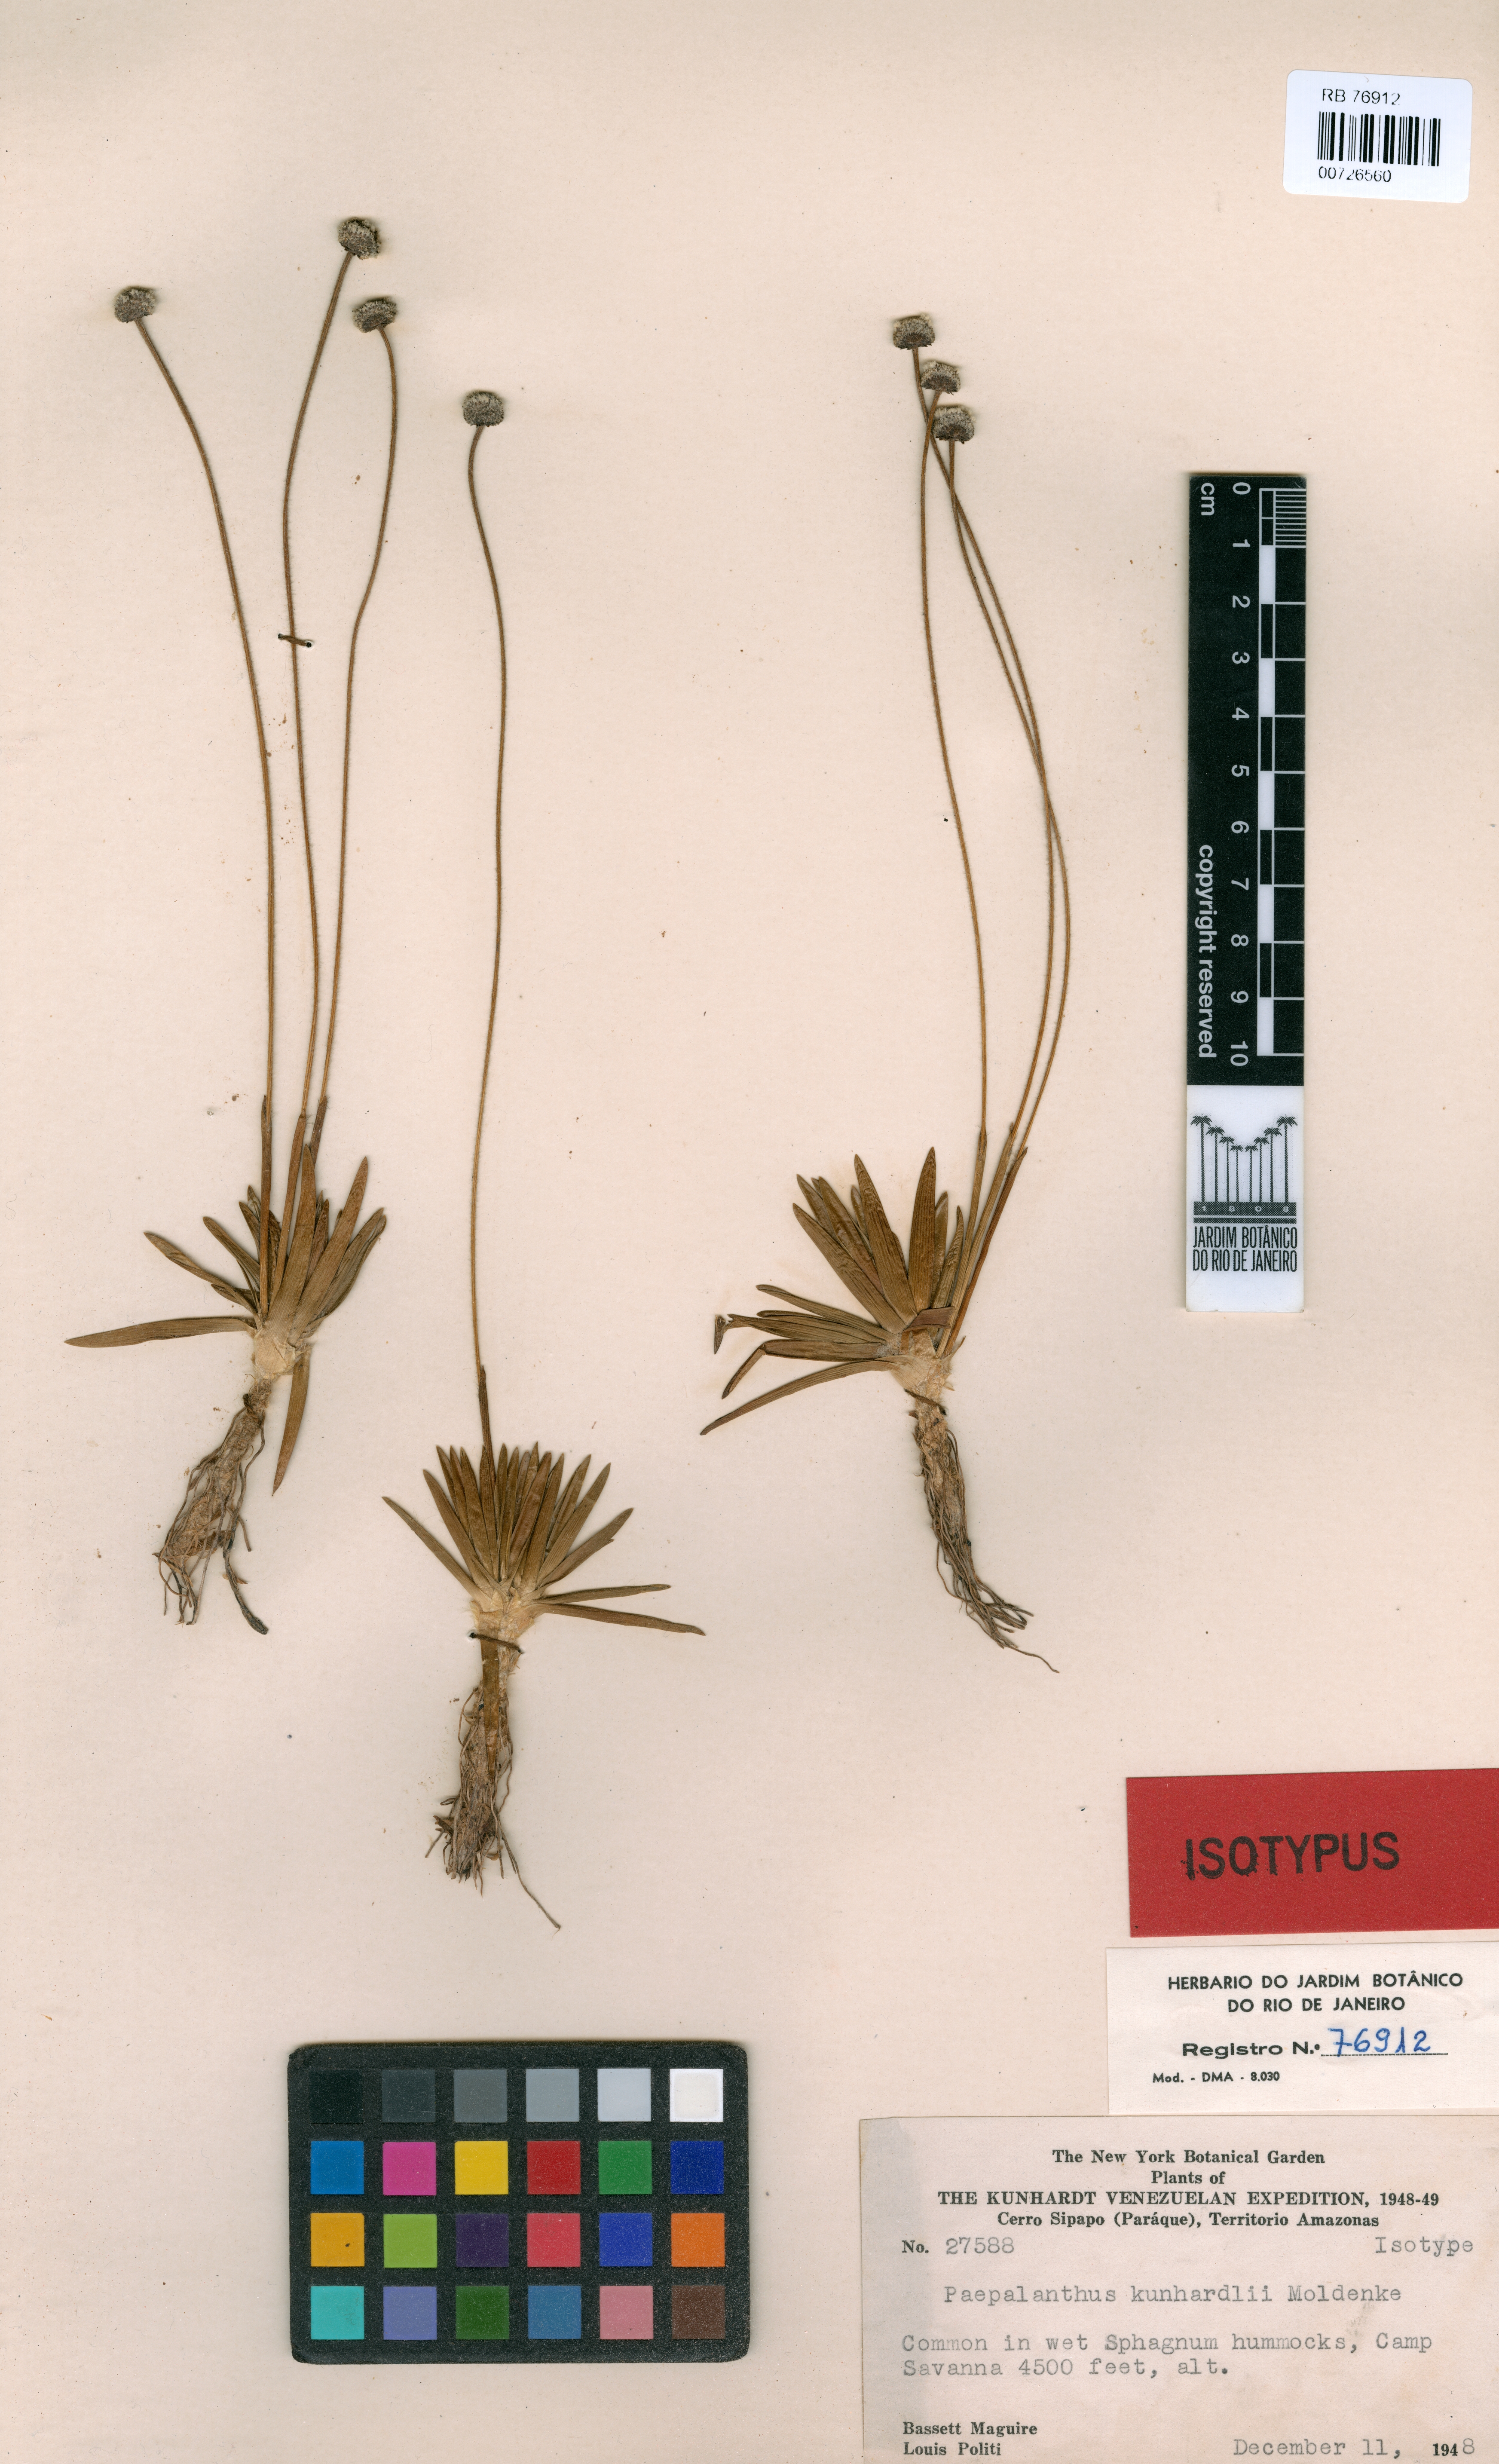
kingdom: Plantae
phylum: Tracheophyta
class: Liliopsida
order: Poales
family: Eriocaulaceae
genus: Paepalanthus
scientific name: Paepalanthus kunhardtii
